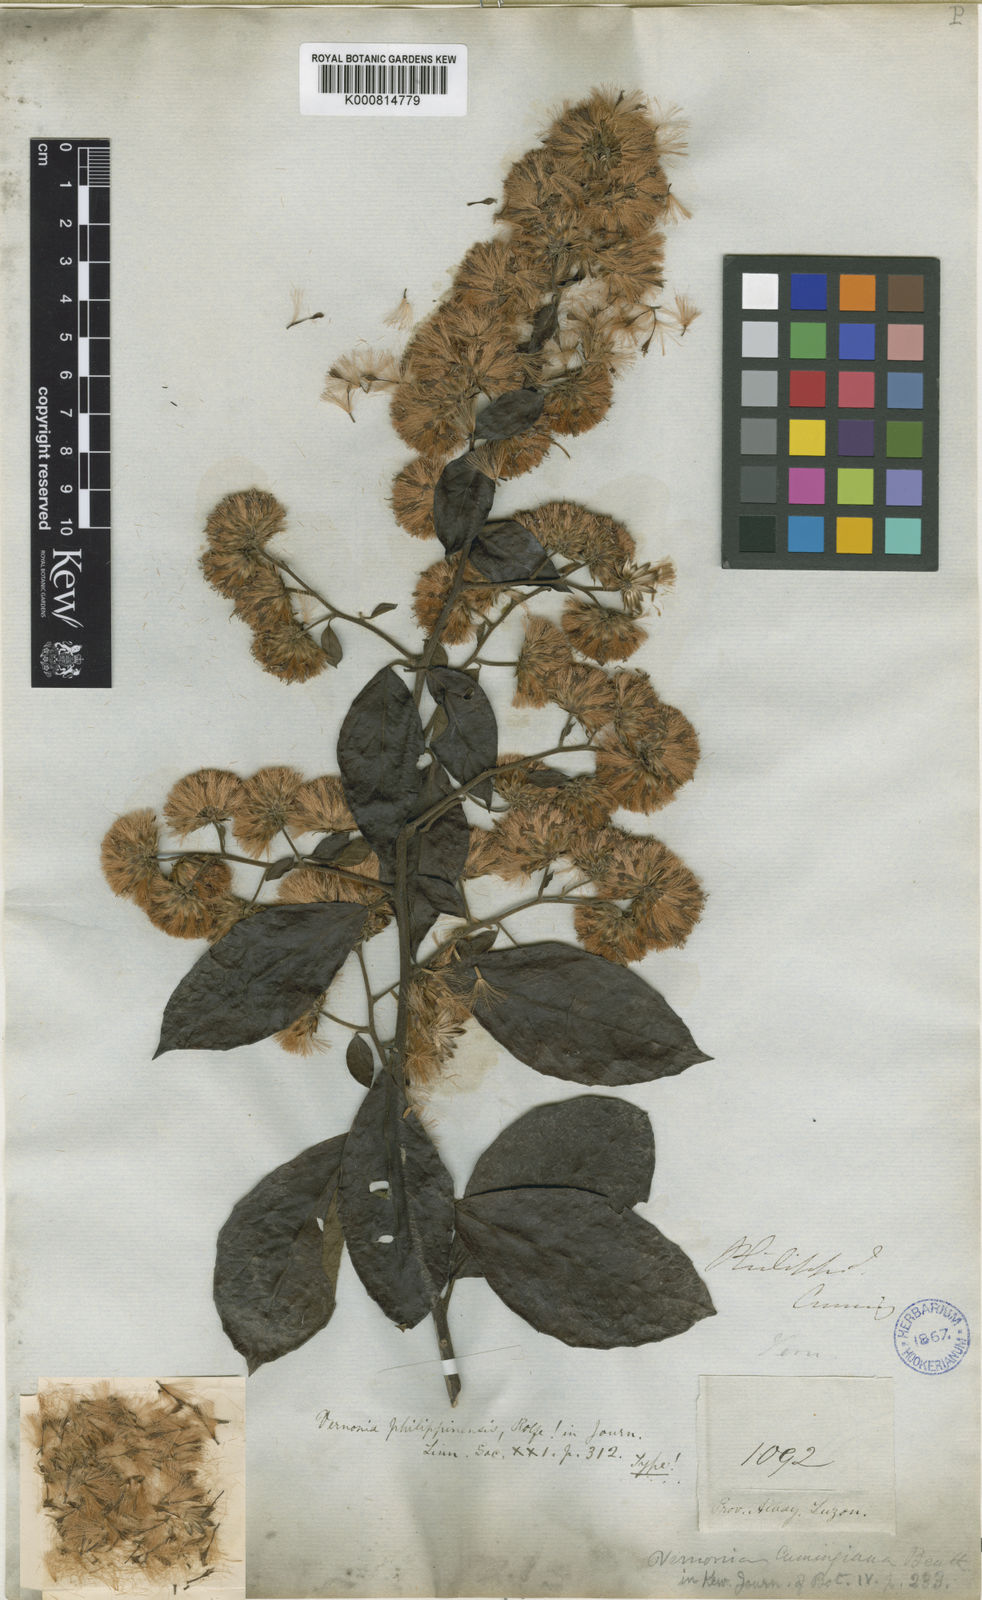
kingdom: Plantae
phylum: Tracheophyta
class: Magnoliopsida
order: Asterales
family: Asteraceae
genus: Decaneuropsis
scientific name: Decaneuropsis philippinensis
